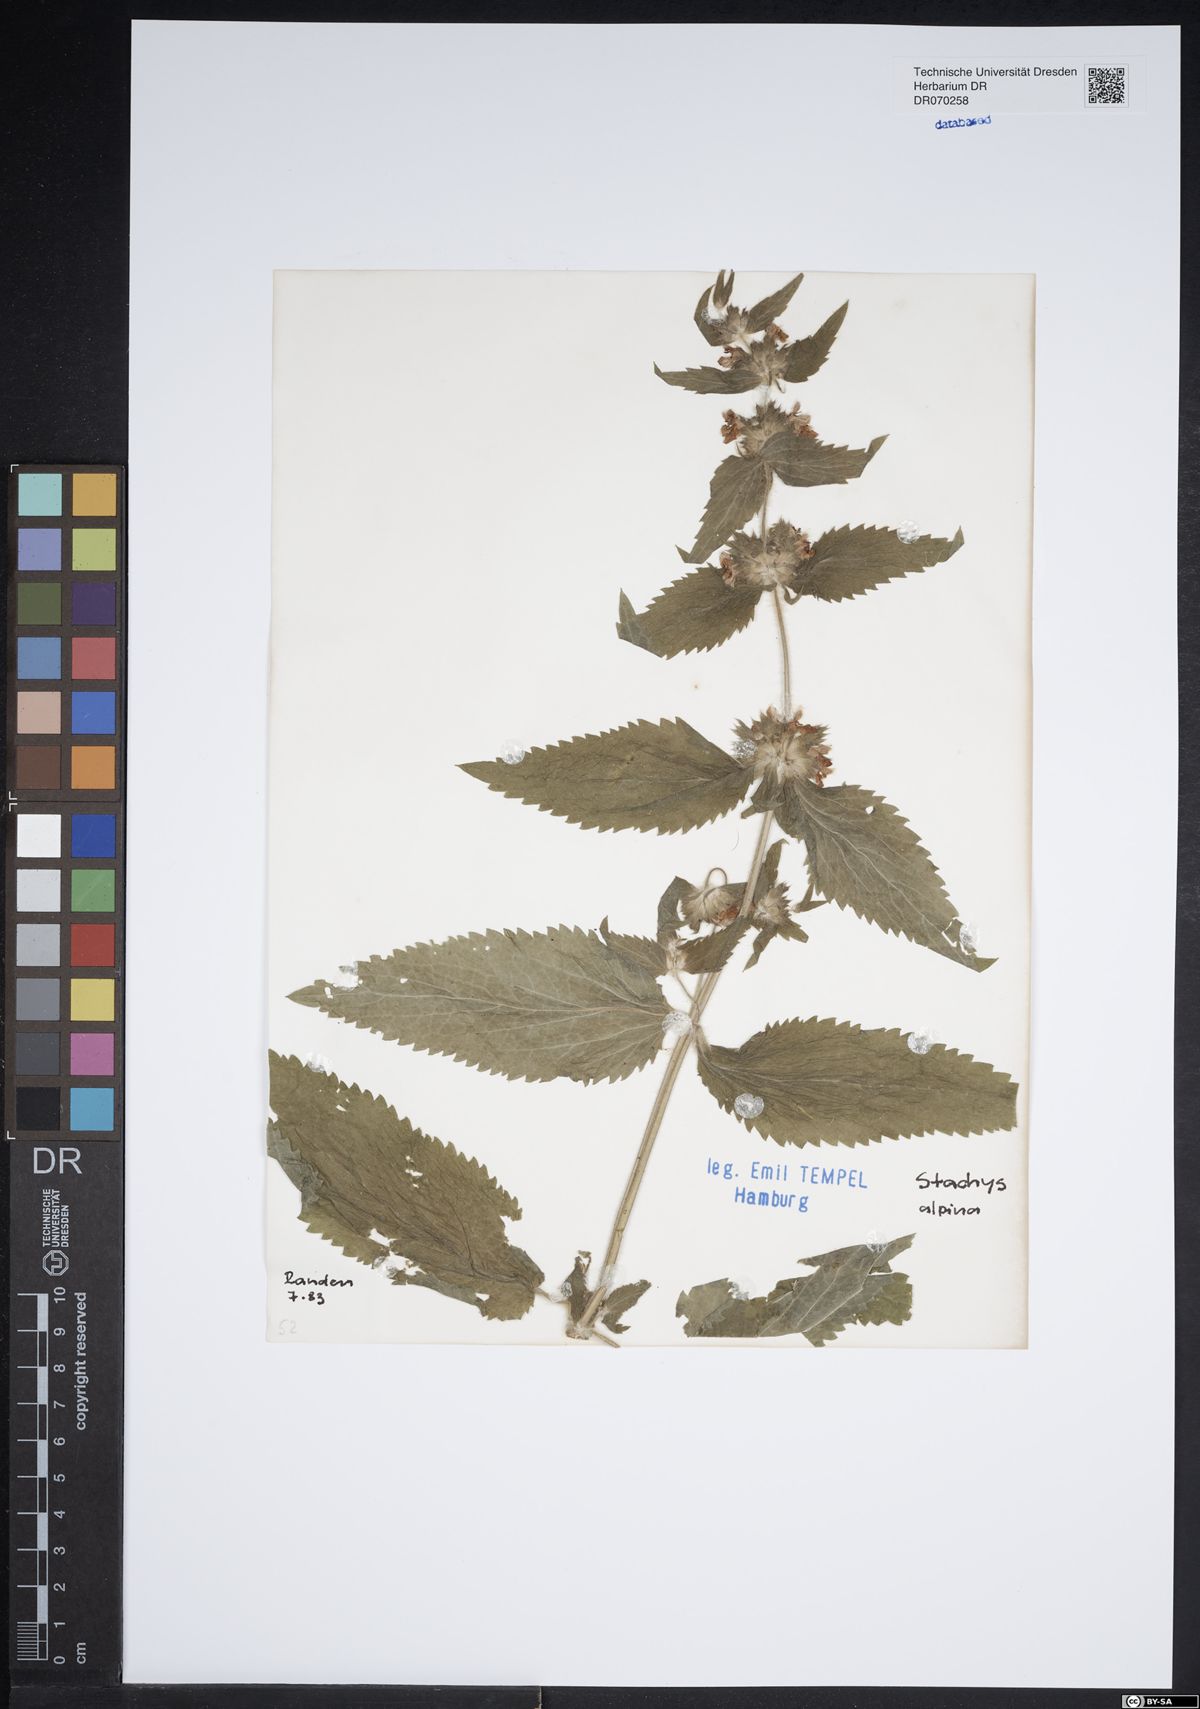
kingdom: Plantae
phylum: Tracheophyta
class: Magnoliopsida
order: Lamiales
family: Lamiaceae
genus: Stachys
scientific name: Stachys alpina
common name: Limestone woundwort
